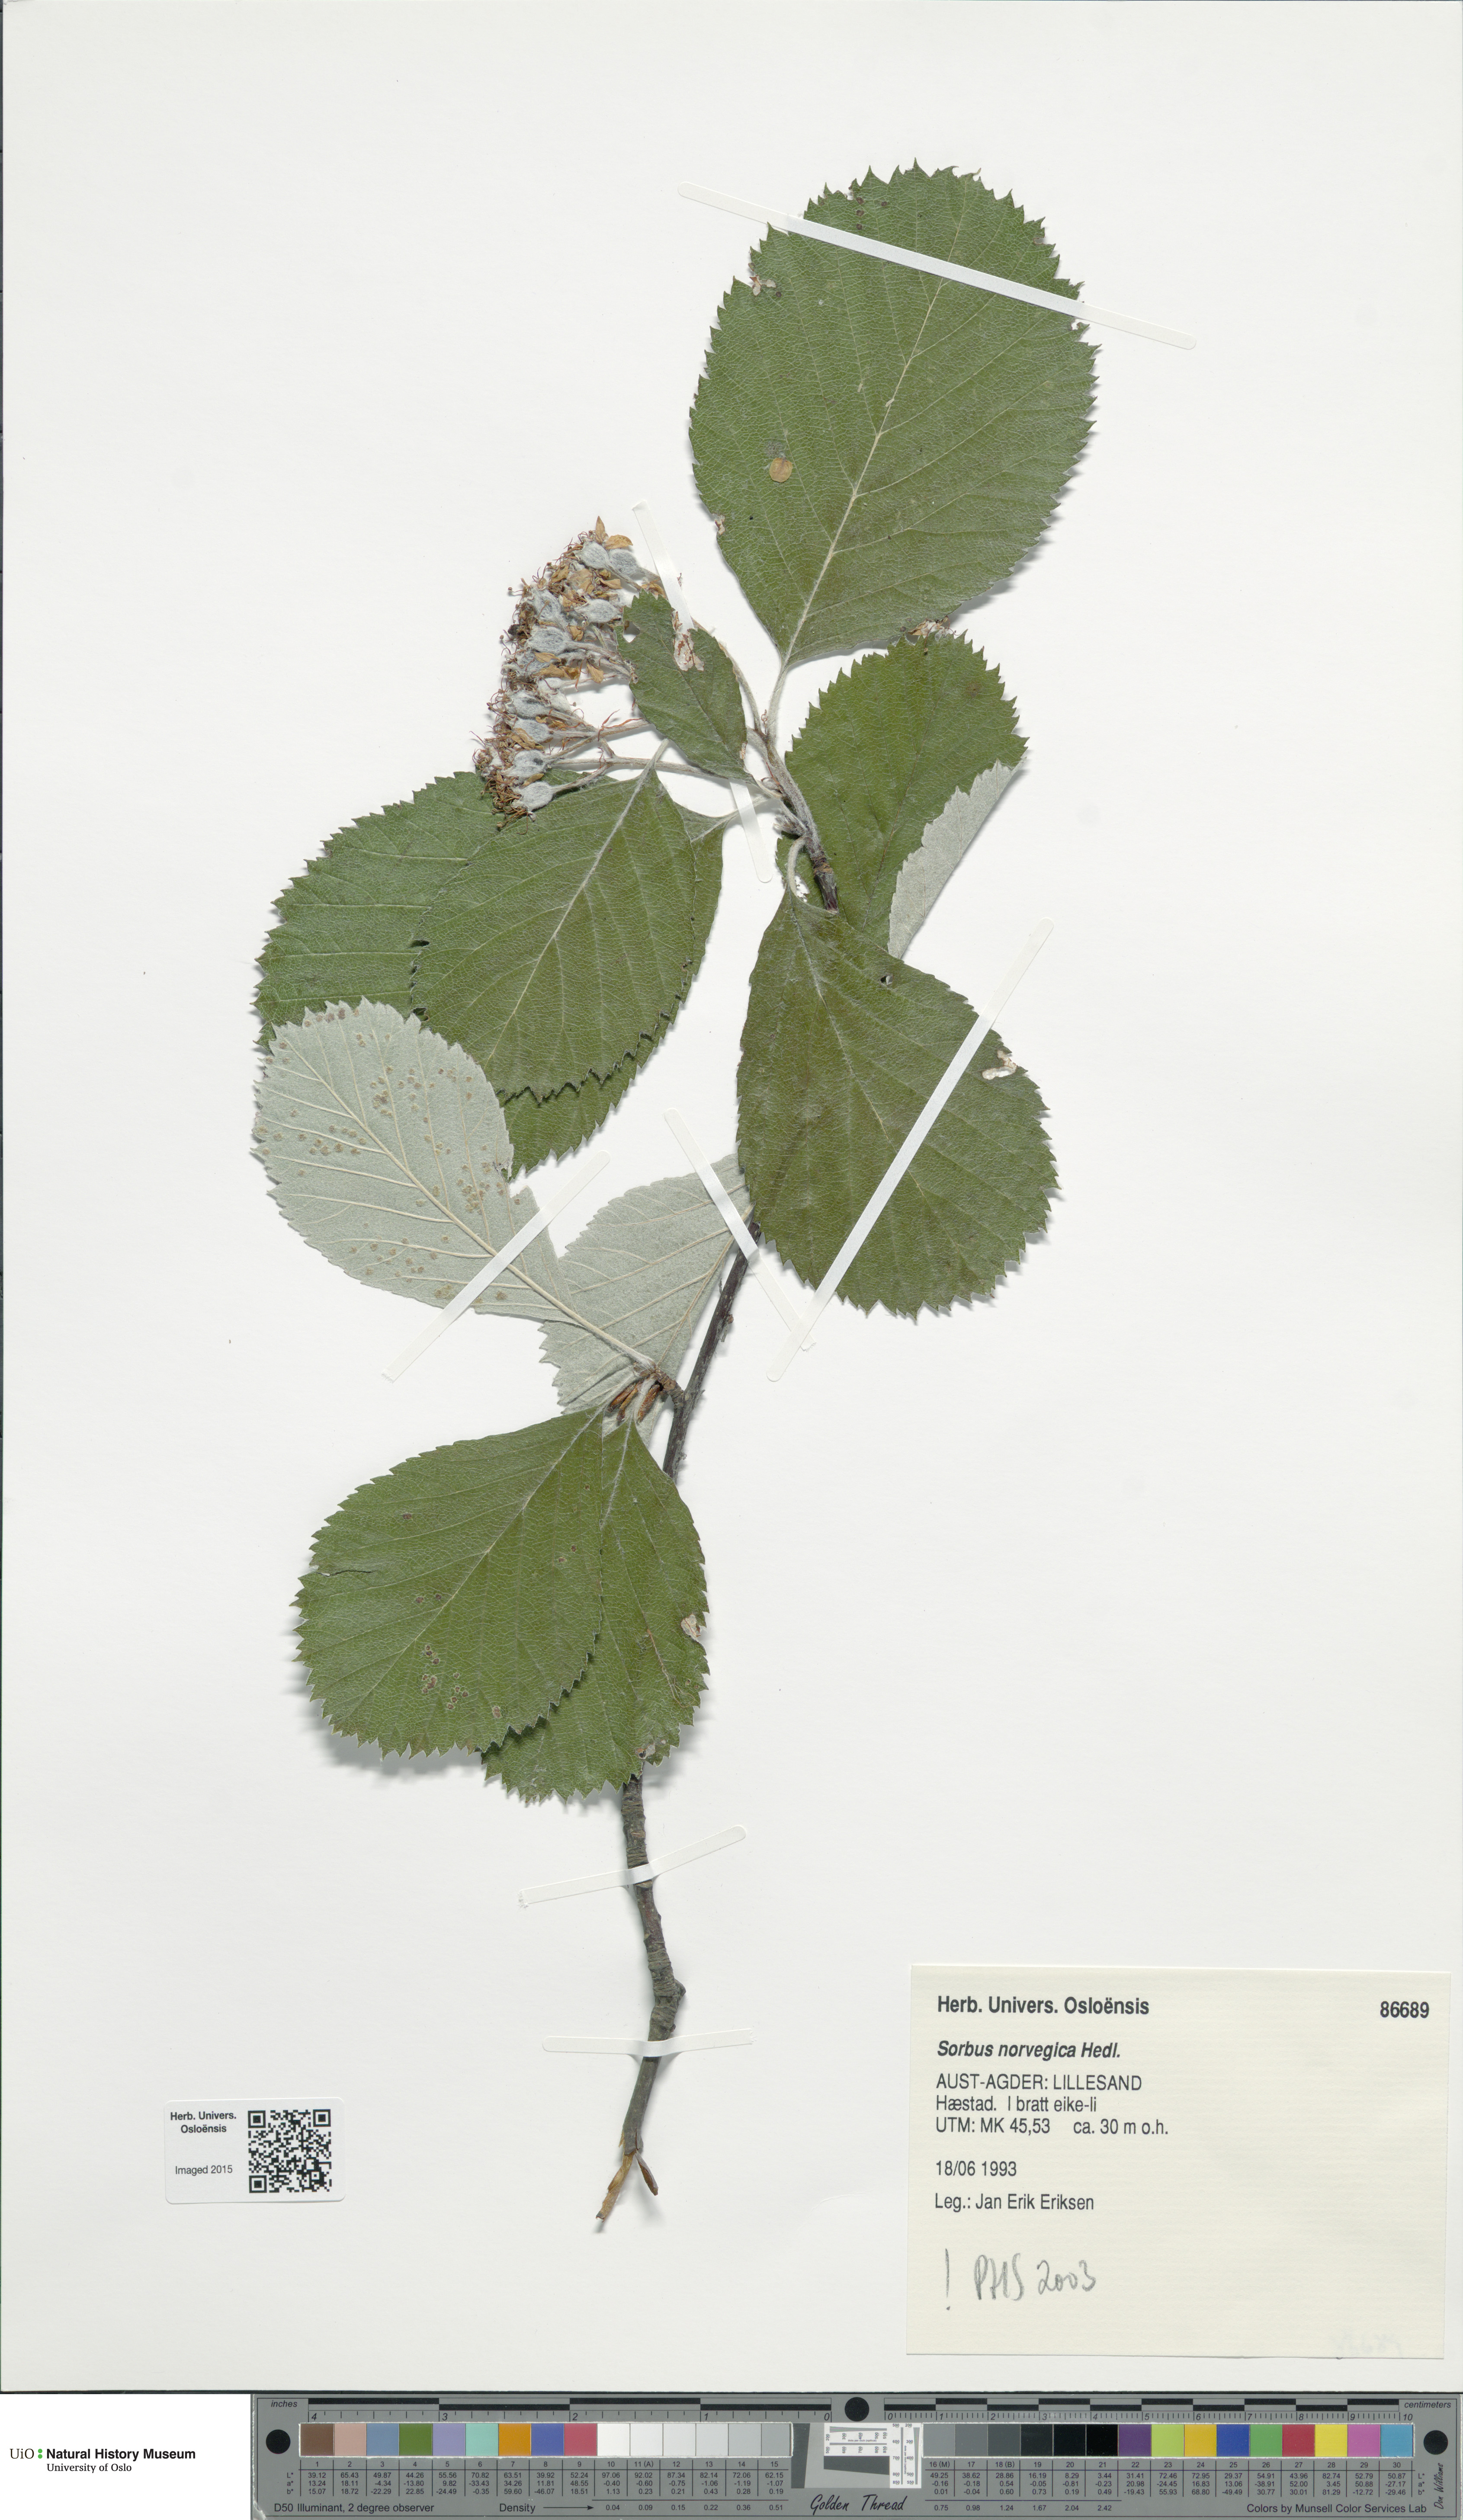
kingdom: Plantae
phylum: Tracheophyta
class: Magnoliopsida
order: Rosales
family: Rosaceae
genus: Aria
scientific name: Aria obtusifolia
